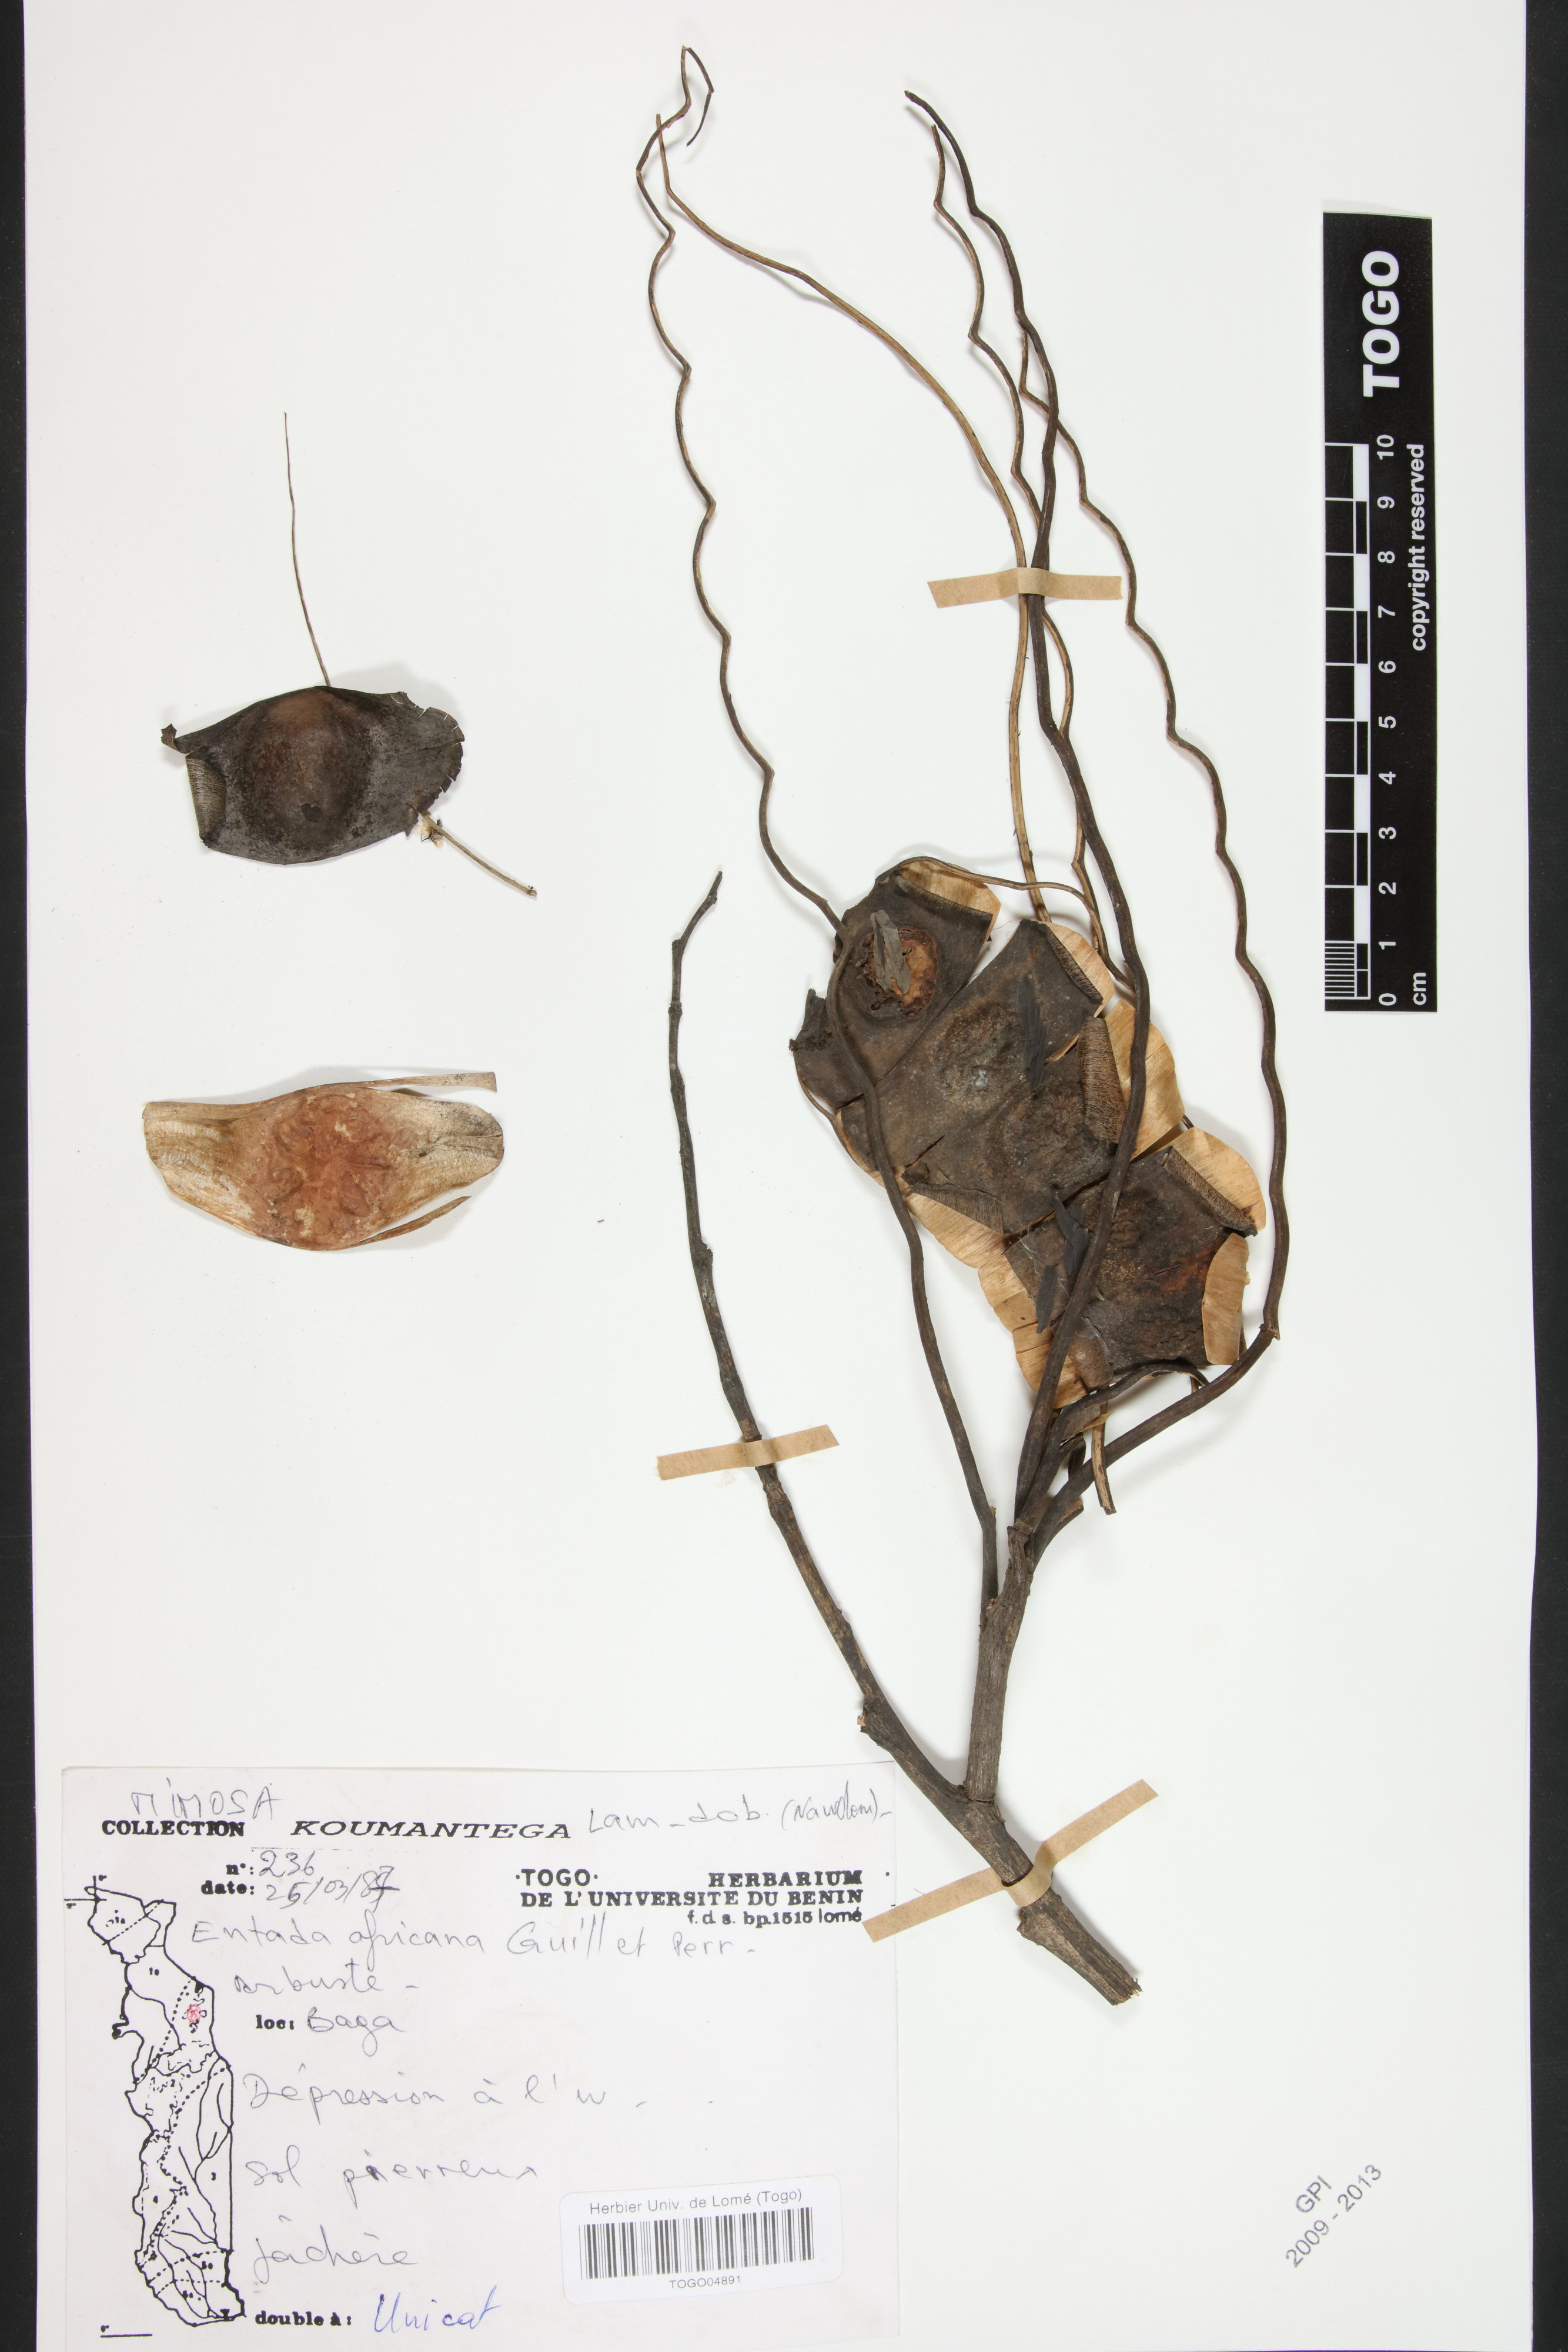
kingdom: Plantae
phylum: Tracheophyta
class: Magnoliopsida
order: Fabales
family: Fabaceae
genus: Entada
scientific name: Entada africana
